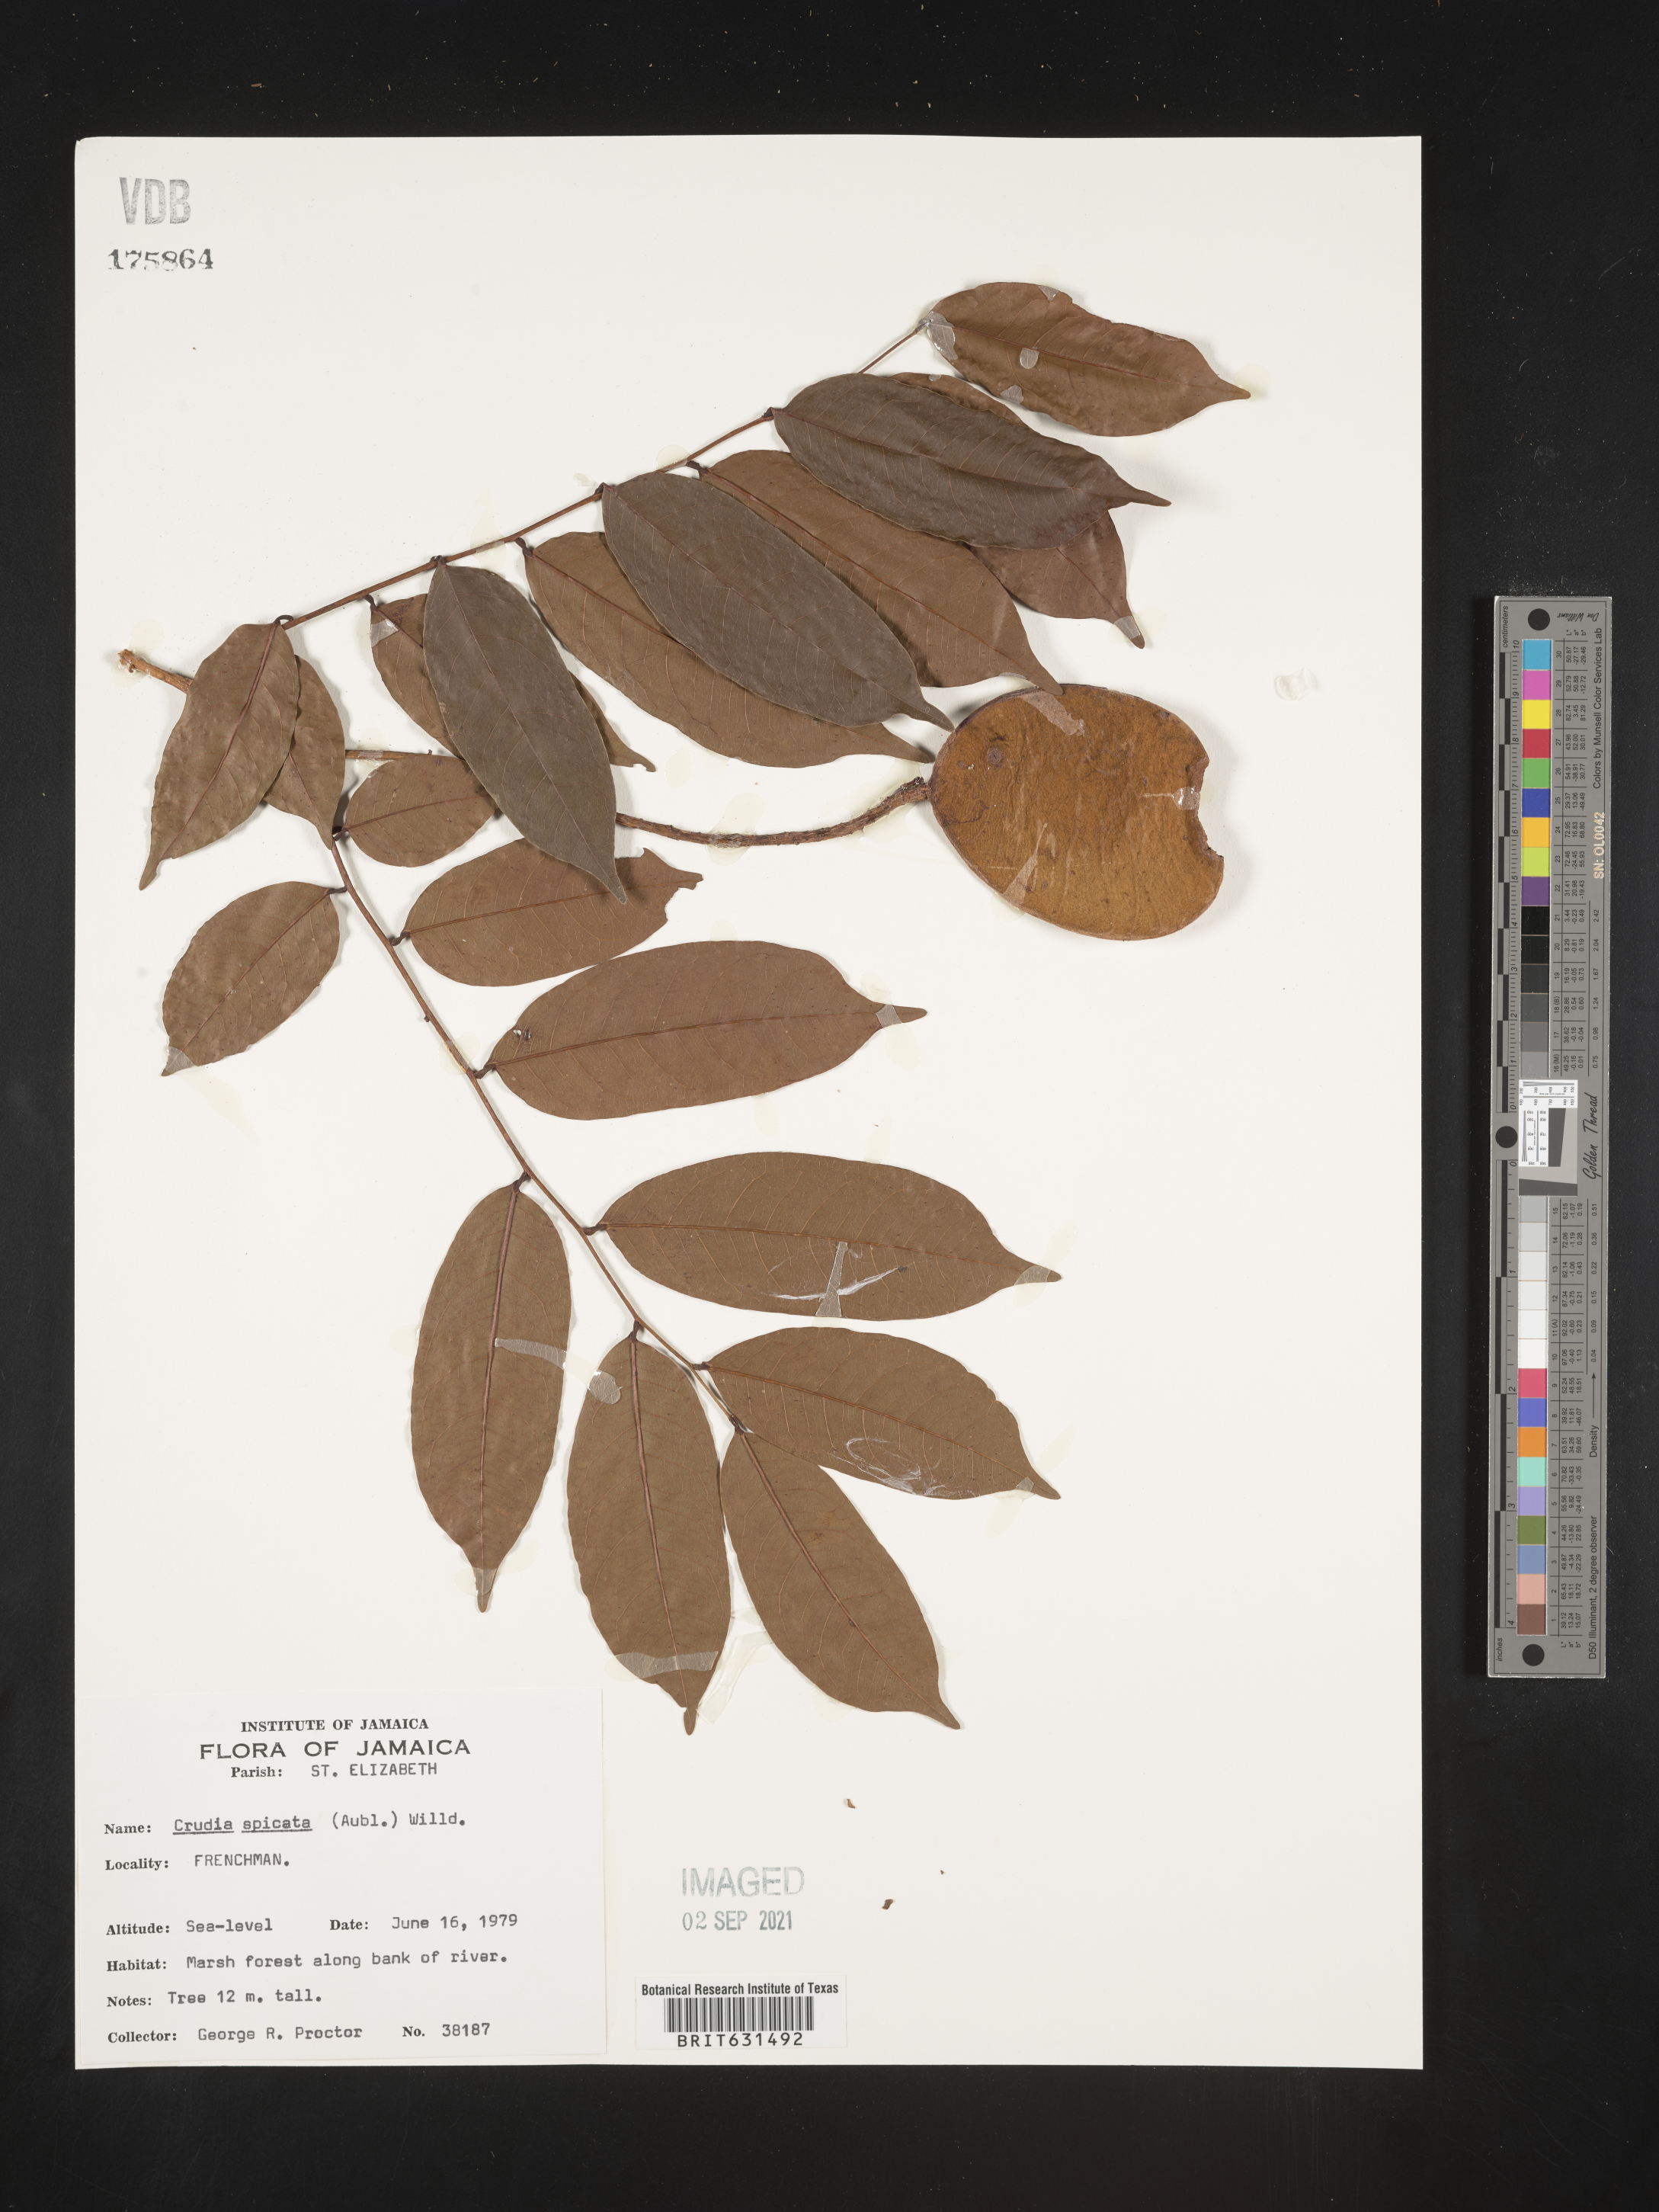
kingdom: Plantae
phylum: Tracheophyta
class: Magnoliopsida
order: Fabales
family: Fabaceae
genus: Crudia
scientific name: Crudia spicata
